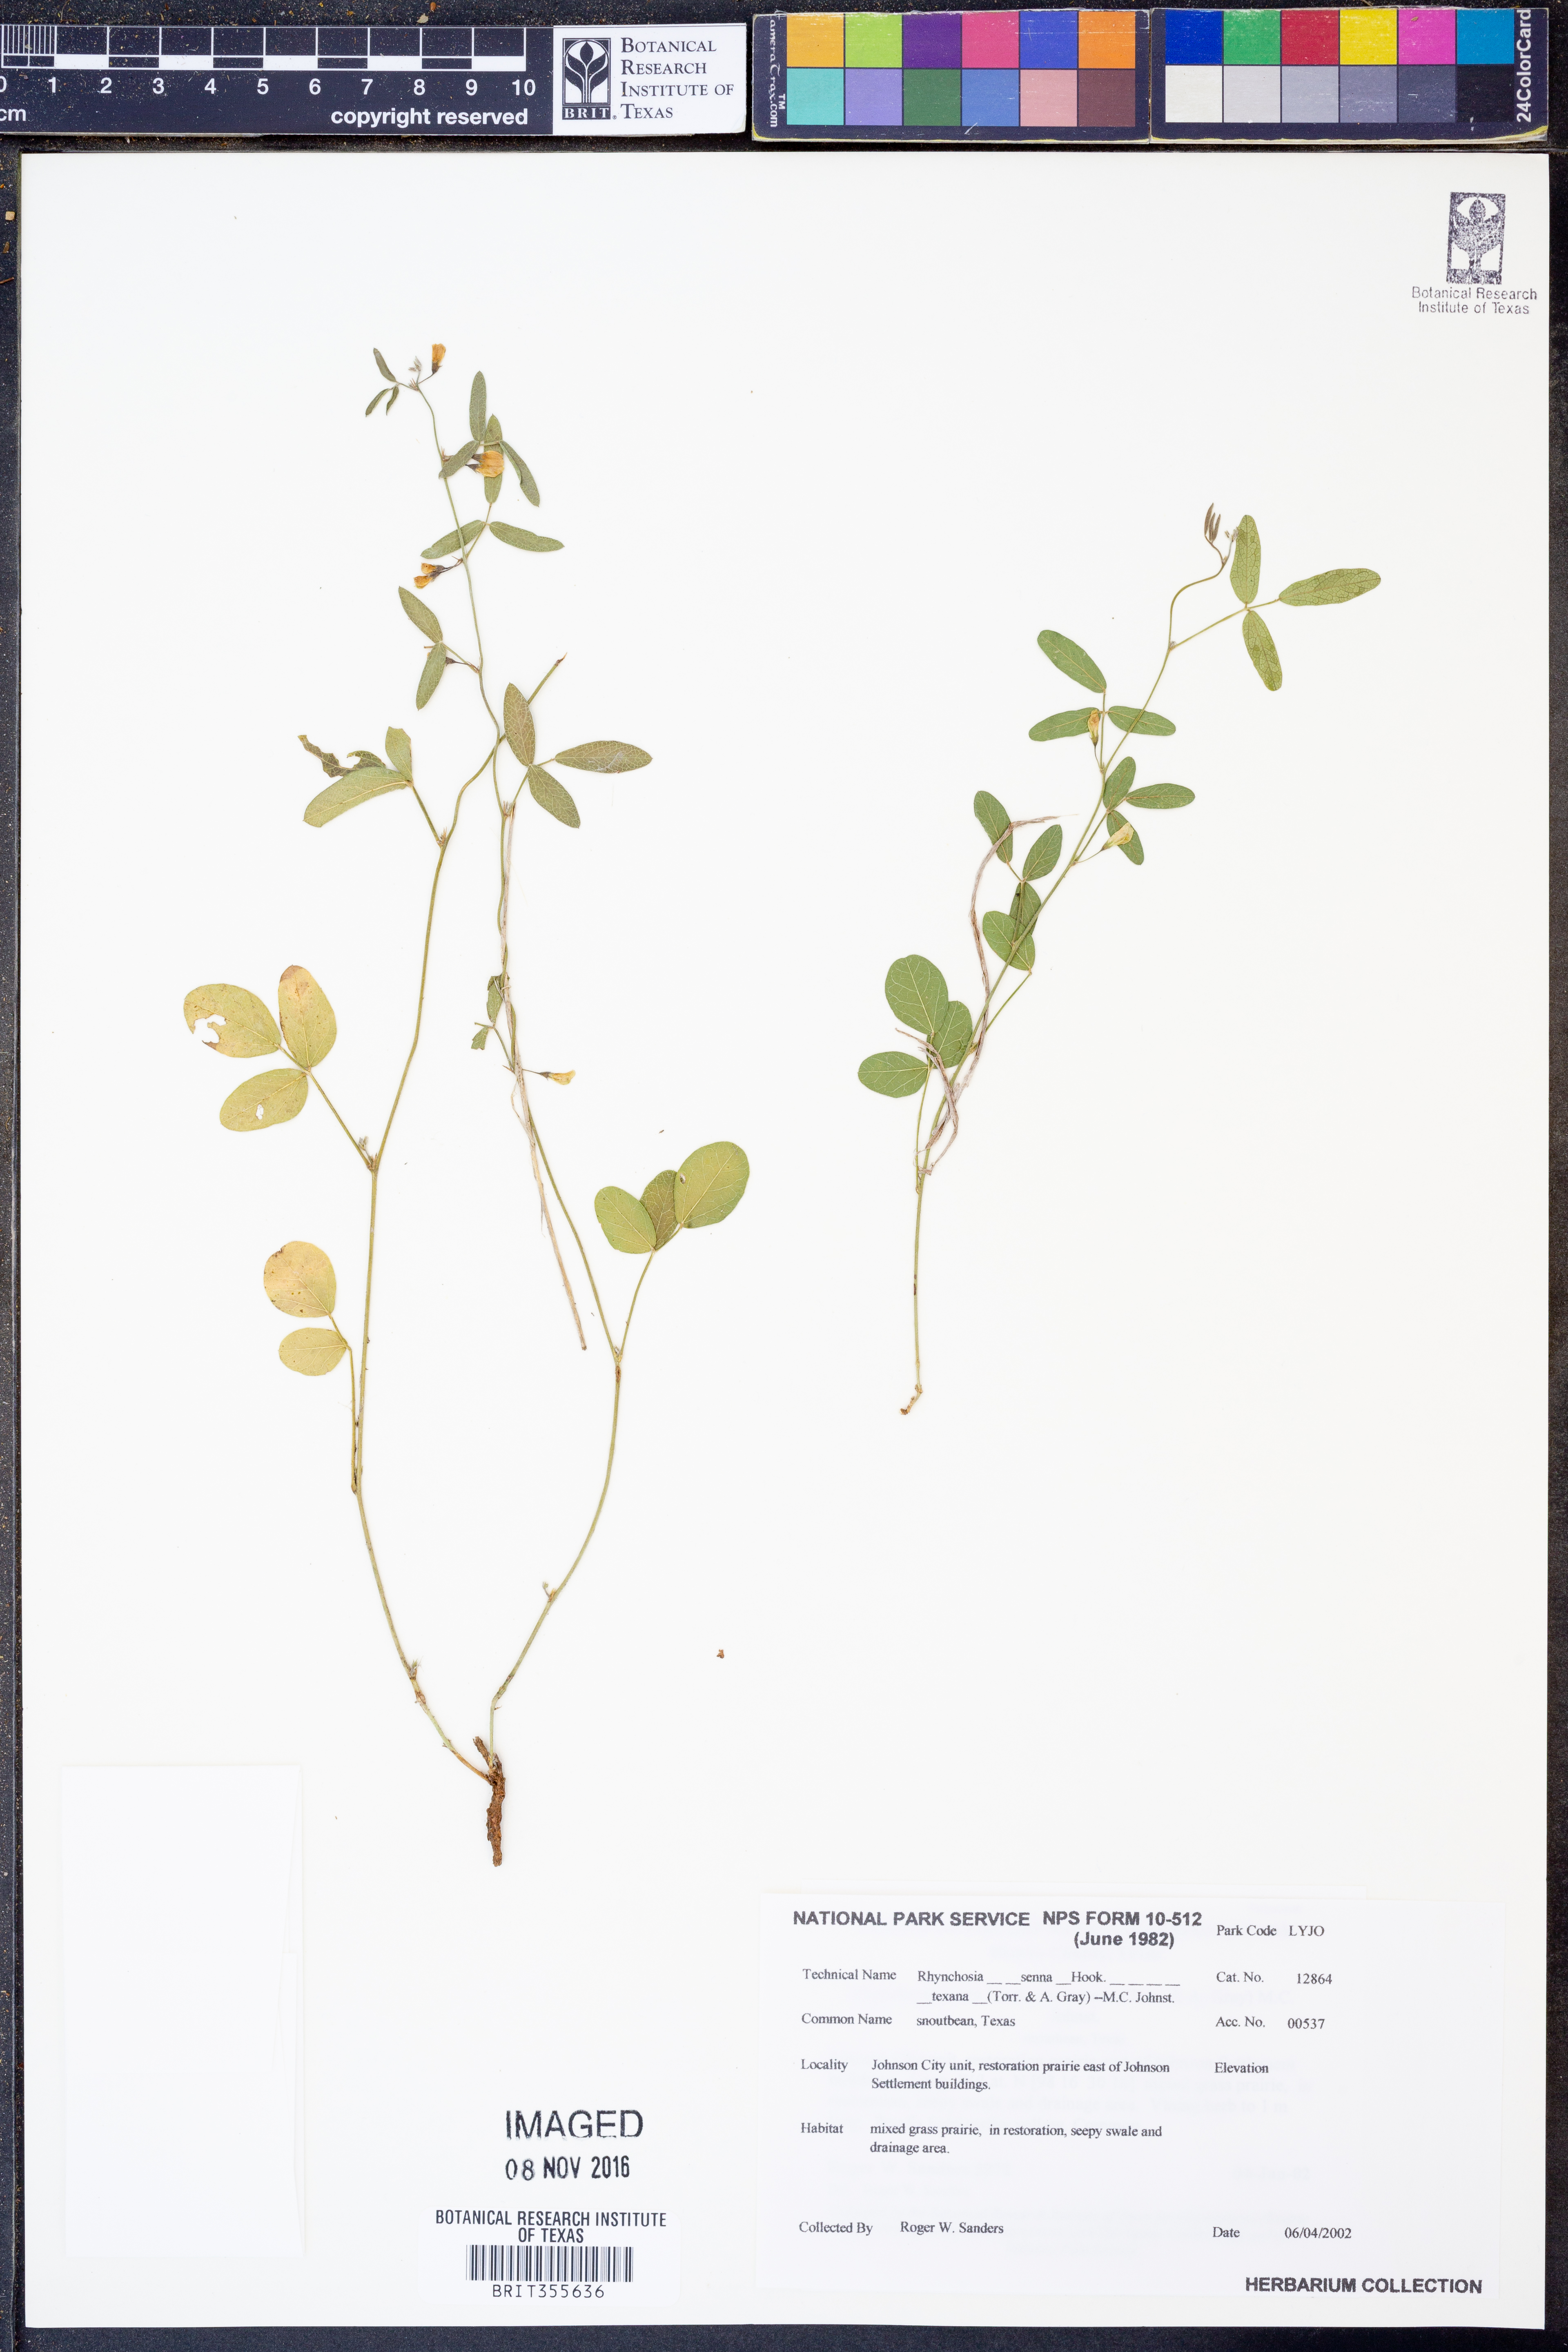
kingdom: Plantae
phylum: Tracheophyta
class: Magnoliopsida
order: Fabales
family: Fabaceae
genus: Rhynchosia
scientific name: Rhynchosia senna
